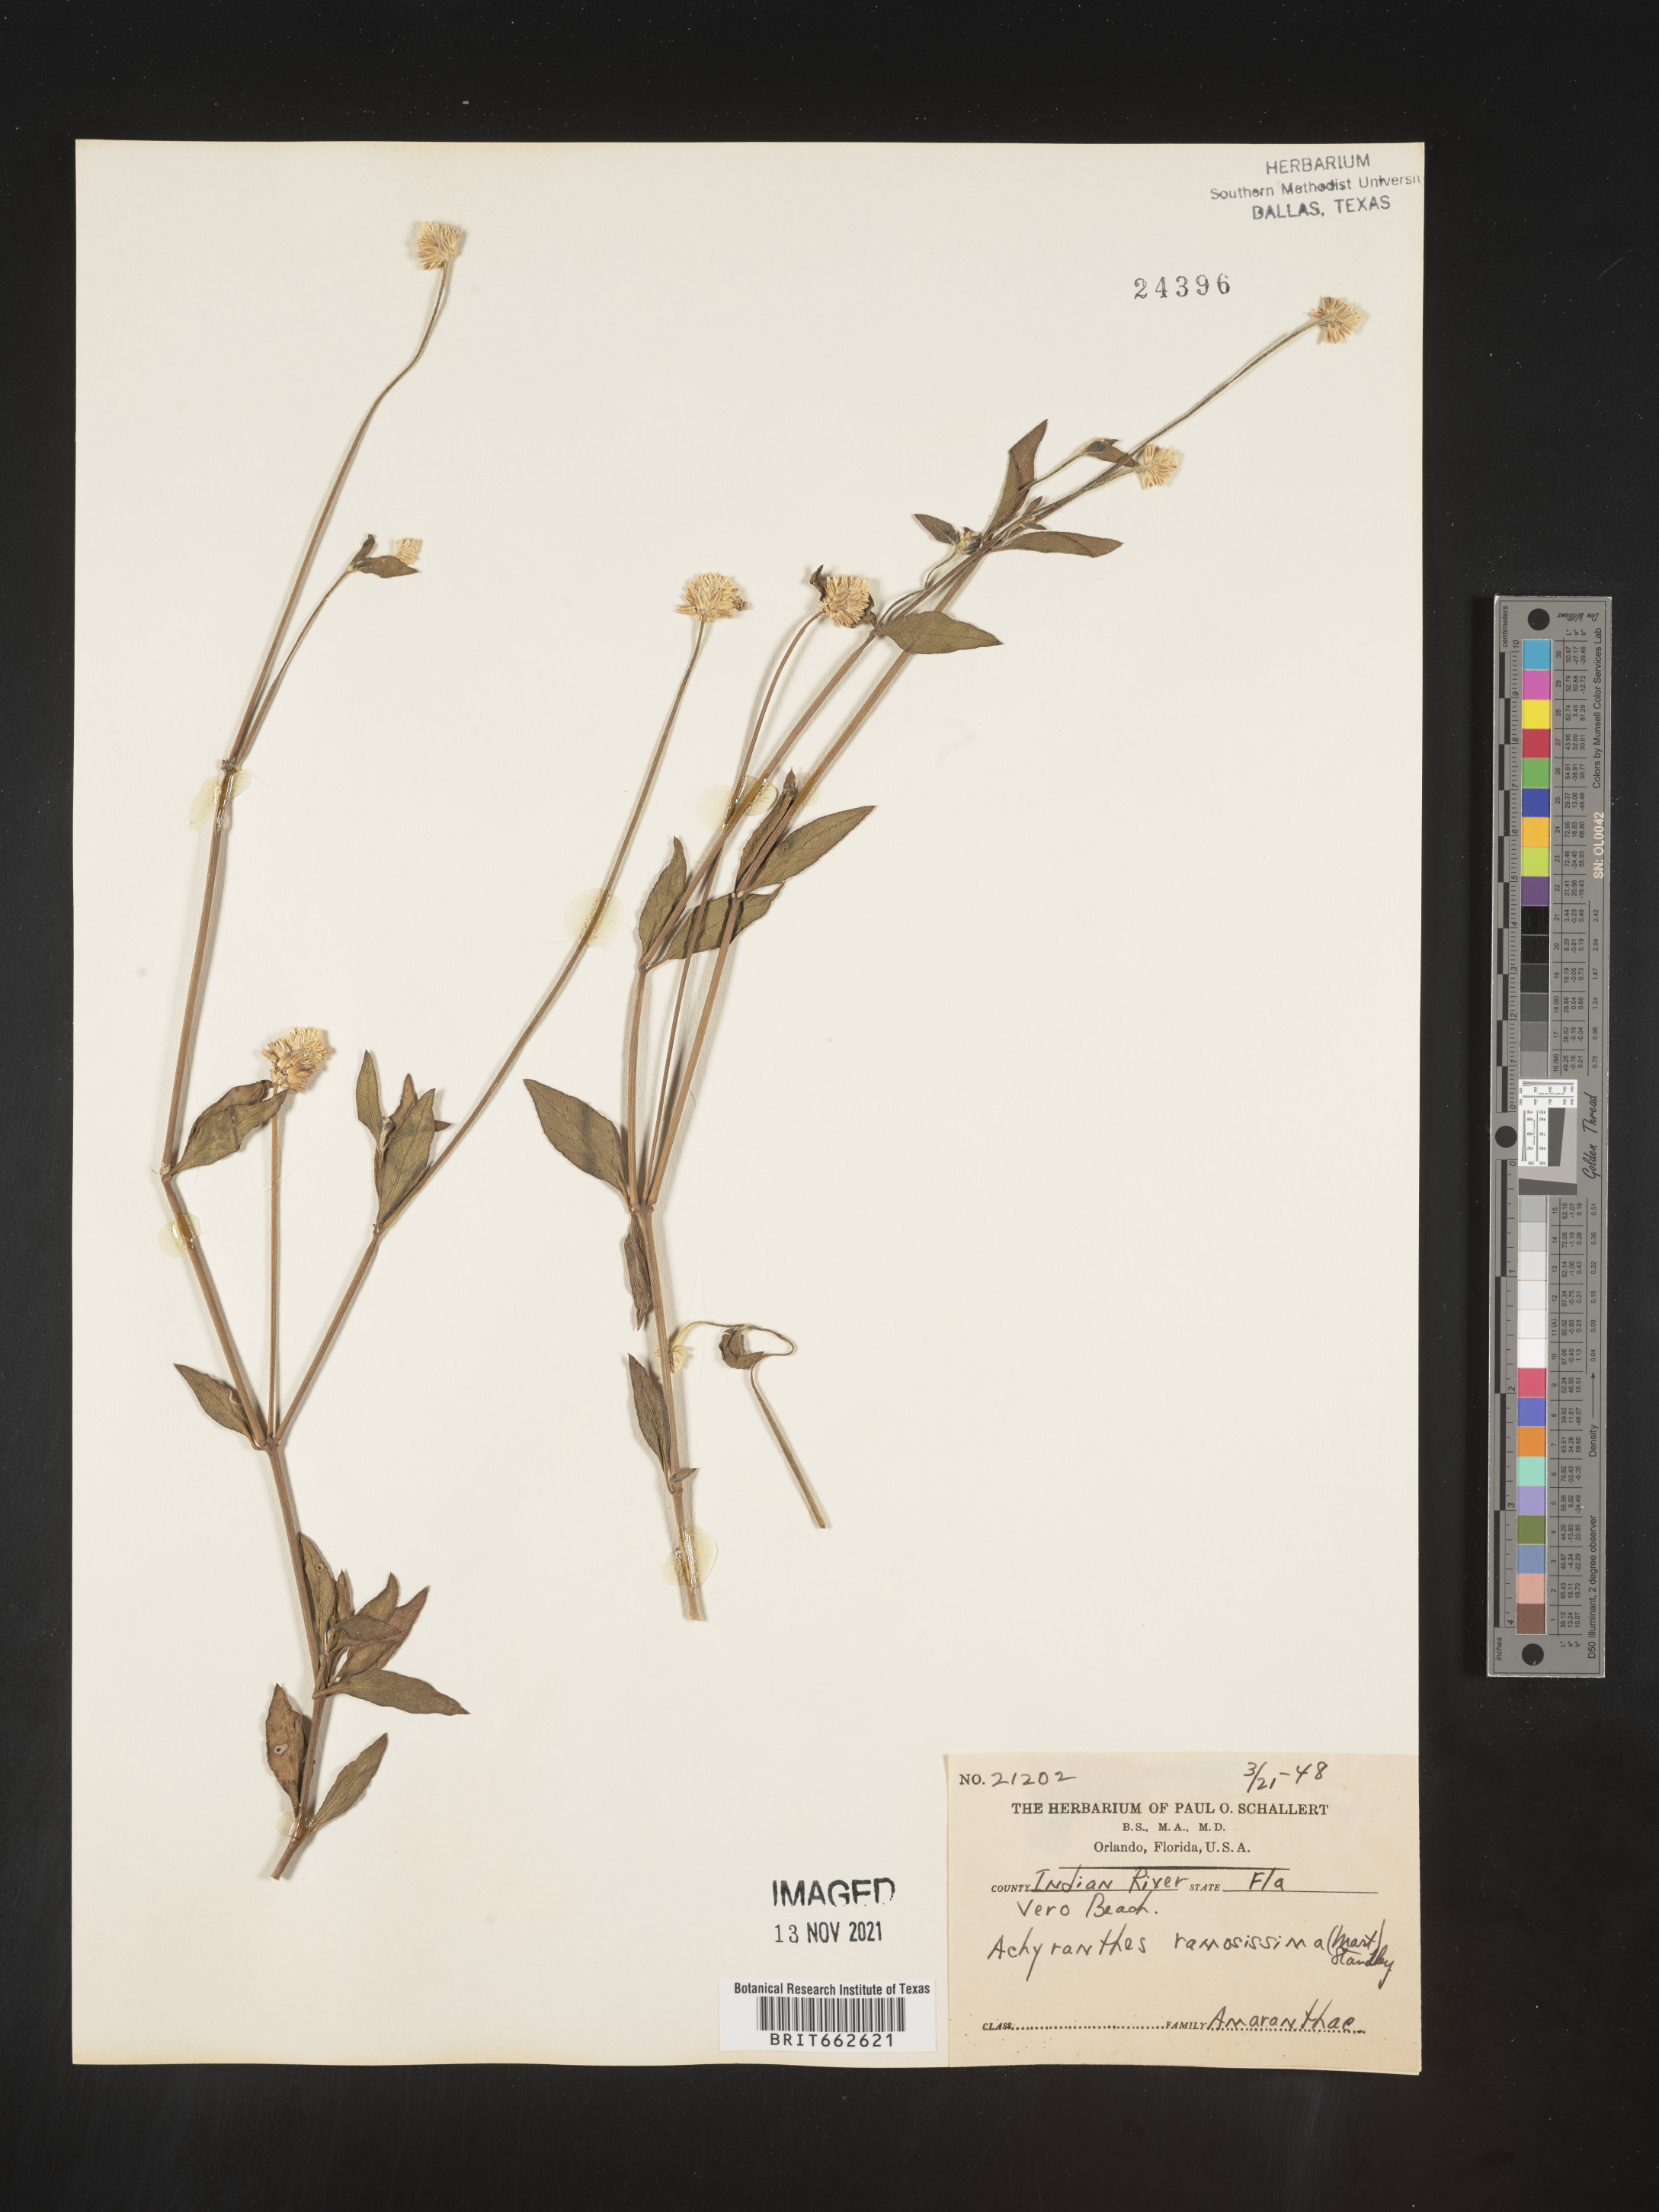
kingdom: Plantae
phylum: Tracheophyta
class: Magnoliopsida
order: Caryophyllales
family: Amaranthaceae
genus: Alternanthera
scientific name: Alternanthera ramosissima
